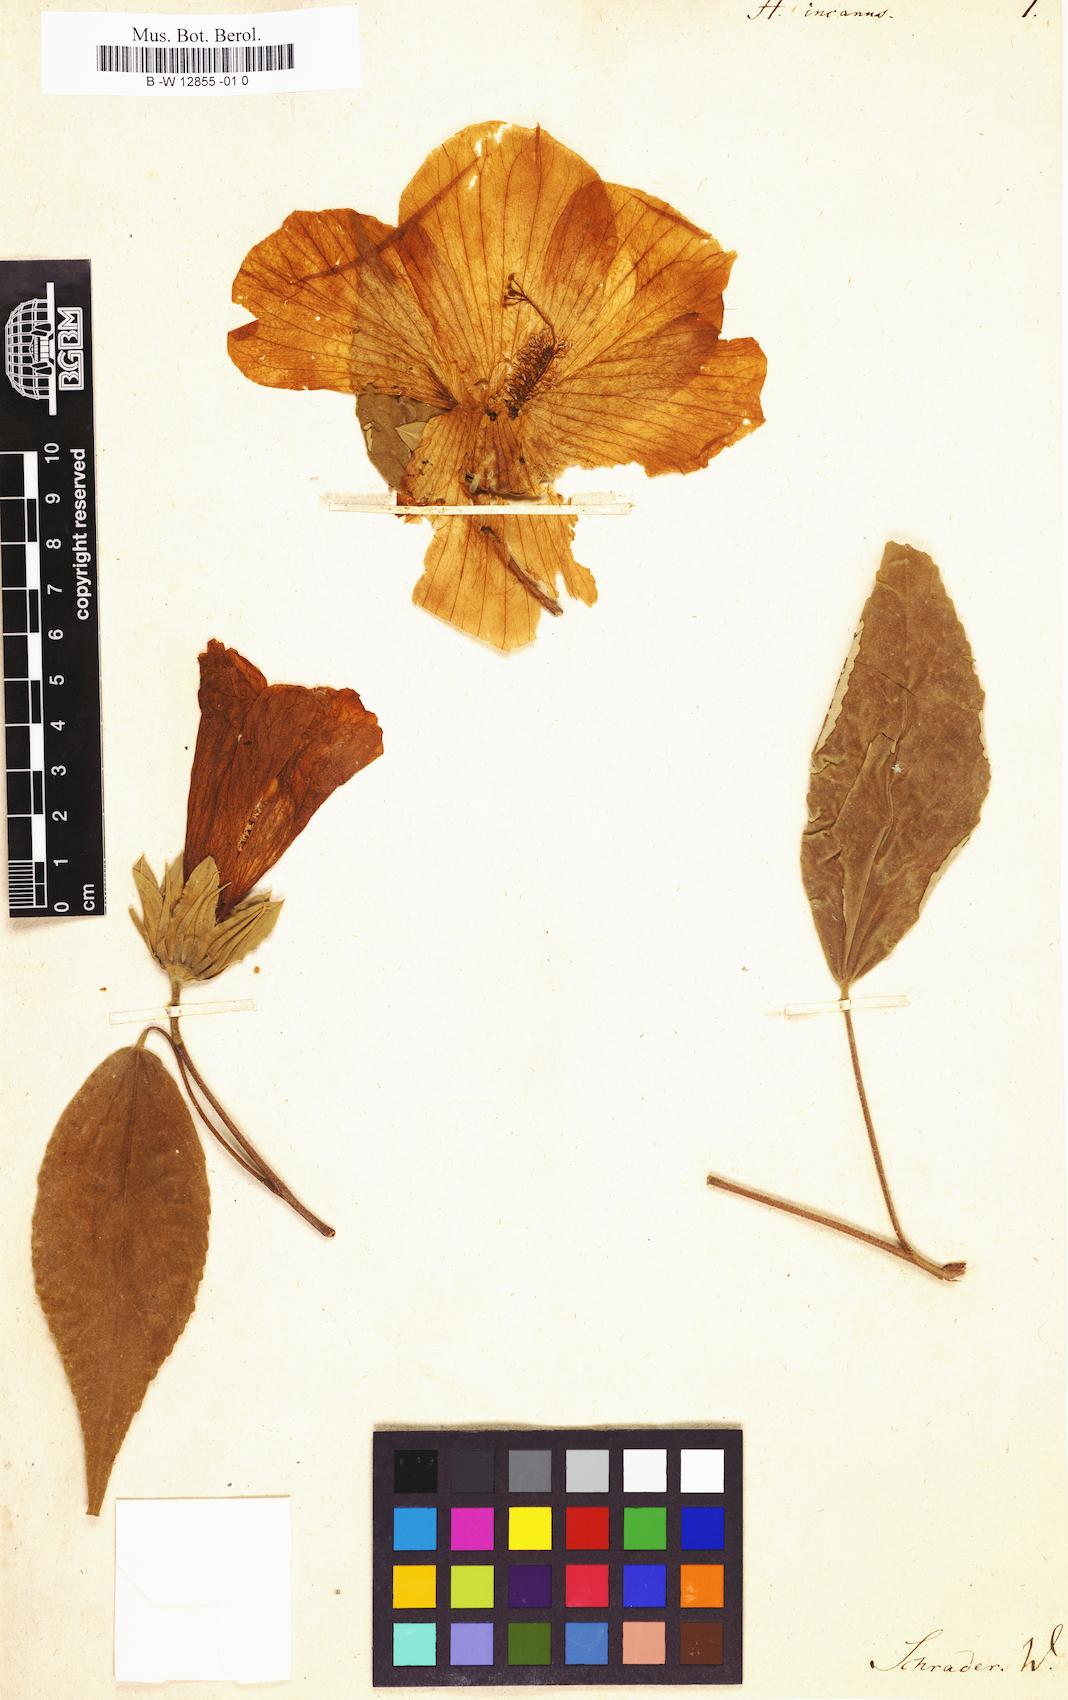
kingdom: Plantae
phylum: Tracheophyta
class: Magnoliopsida
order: Malvales
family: Malvaceae
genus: Hibiscus
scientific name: Hibiscus moscheutos
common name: Common rose-mallow
